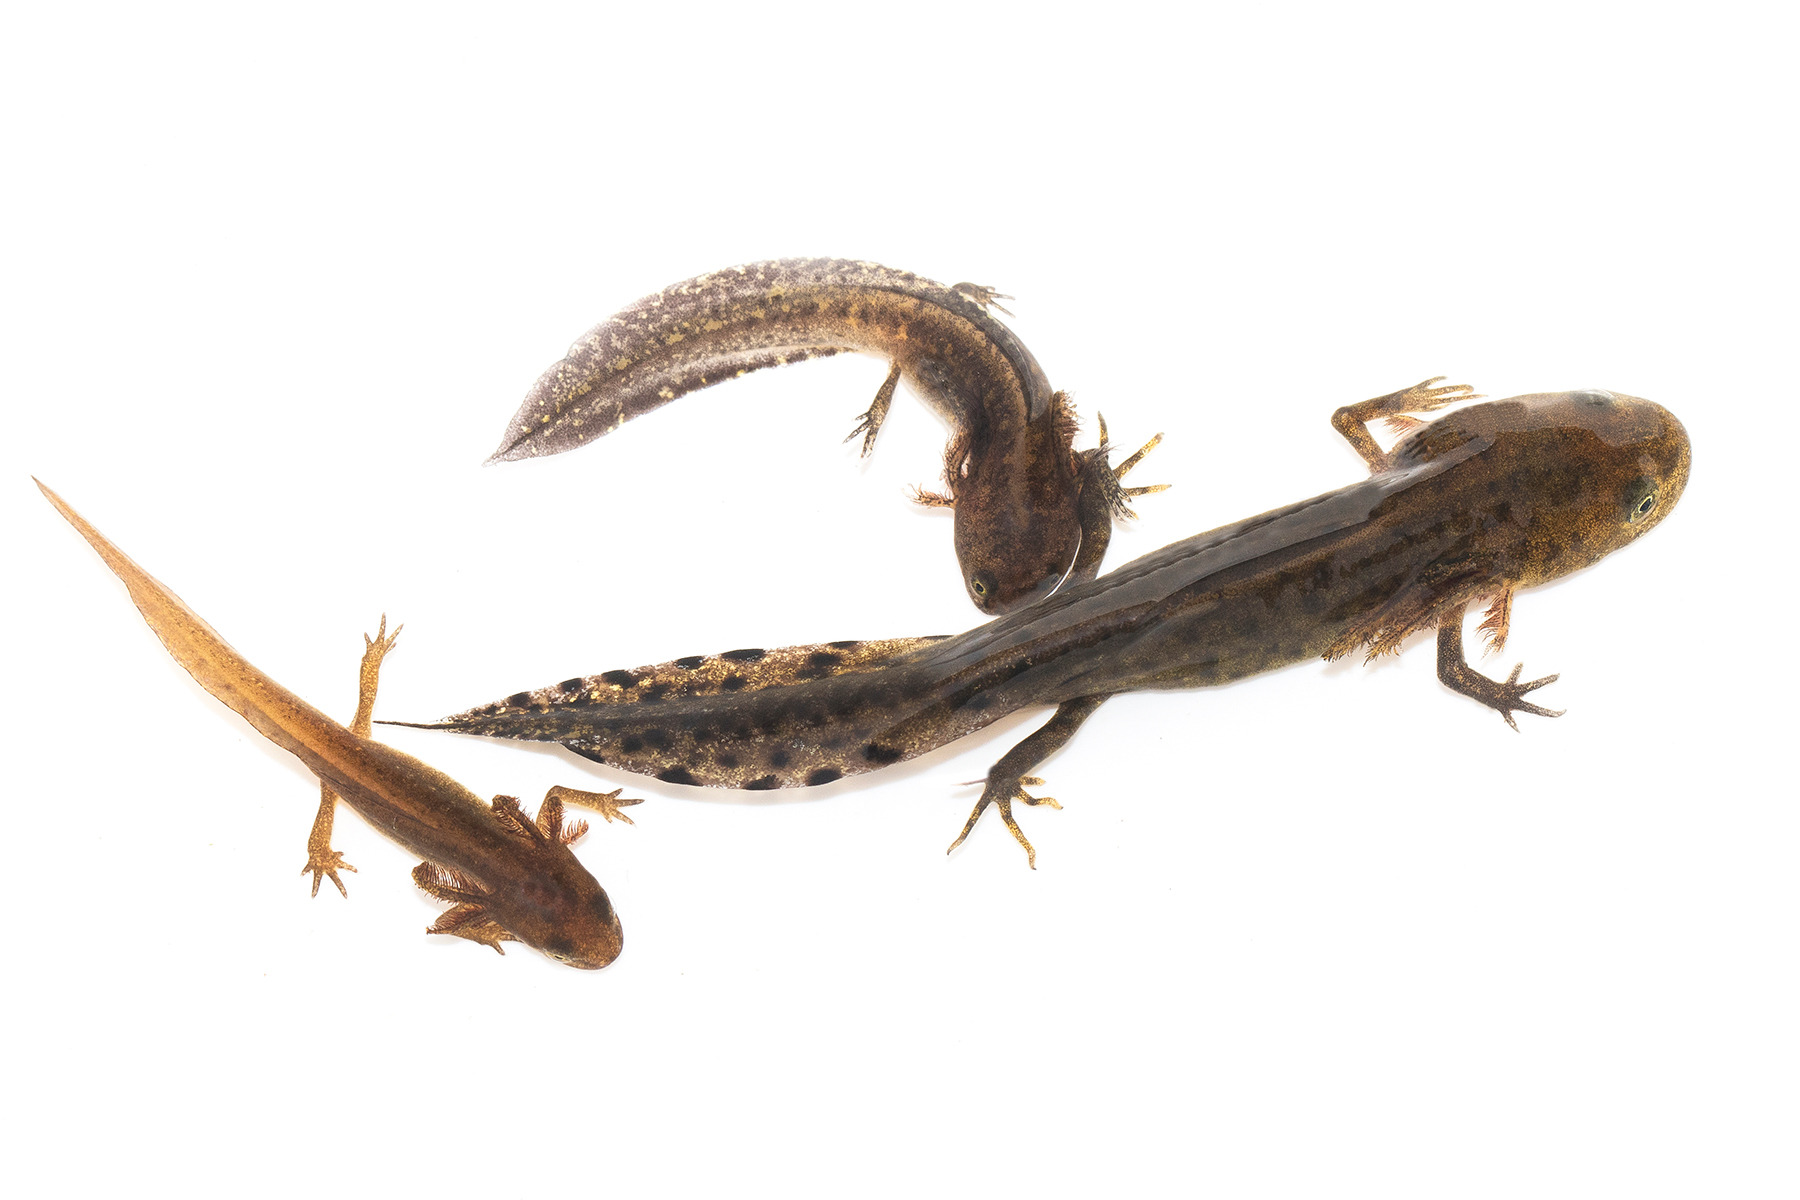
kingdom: Animalia
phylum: Chordata
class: Amphibia
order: Caudata
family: Salamandridae
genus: Ichthyosaura
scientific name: Ichthyosaura alpestris
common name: Bjergsalamander
